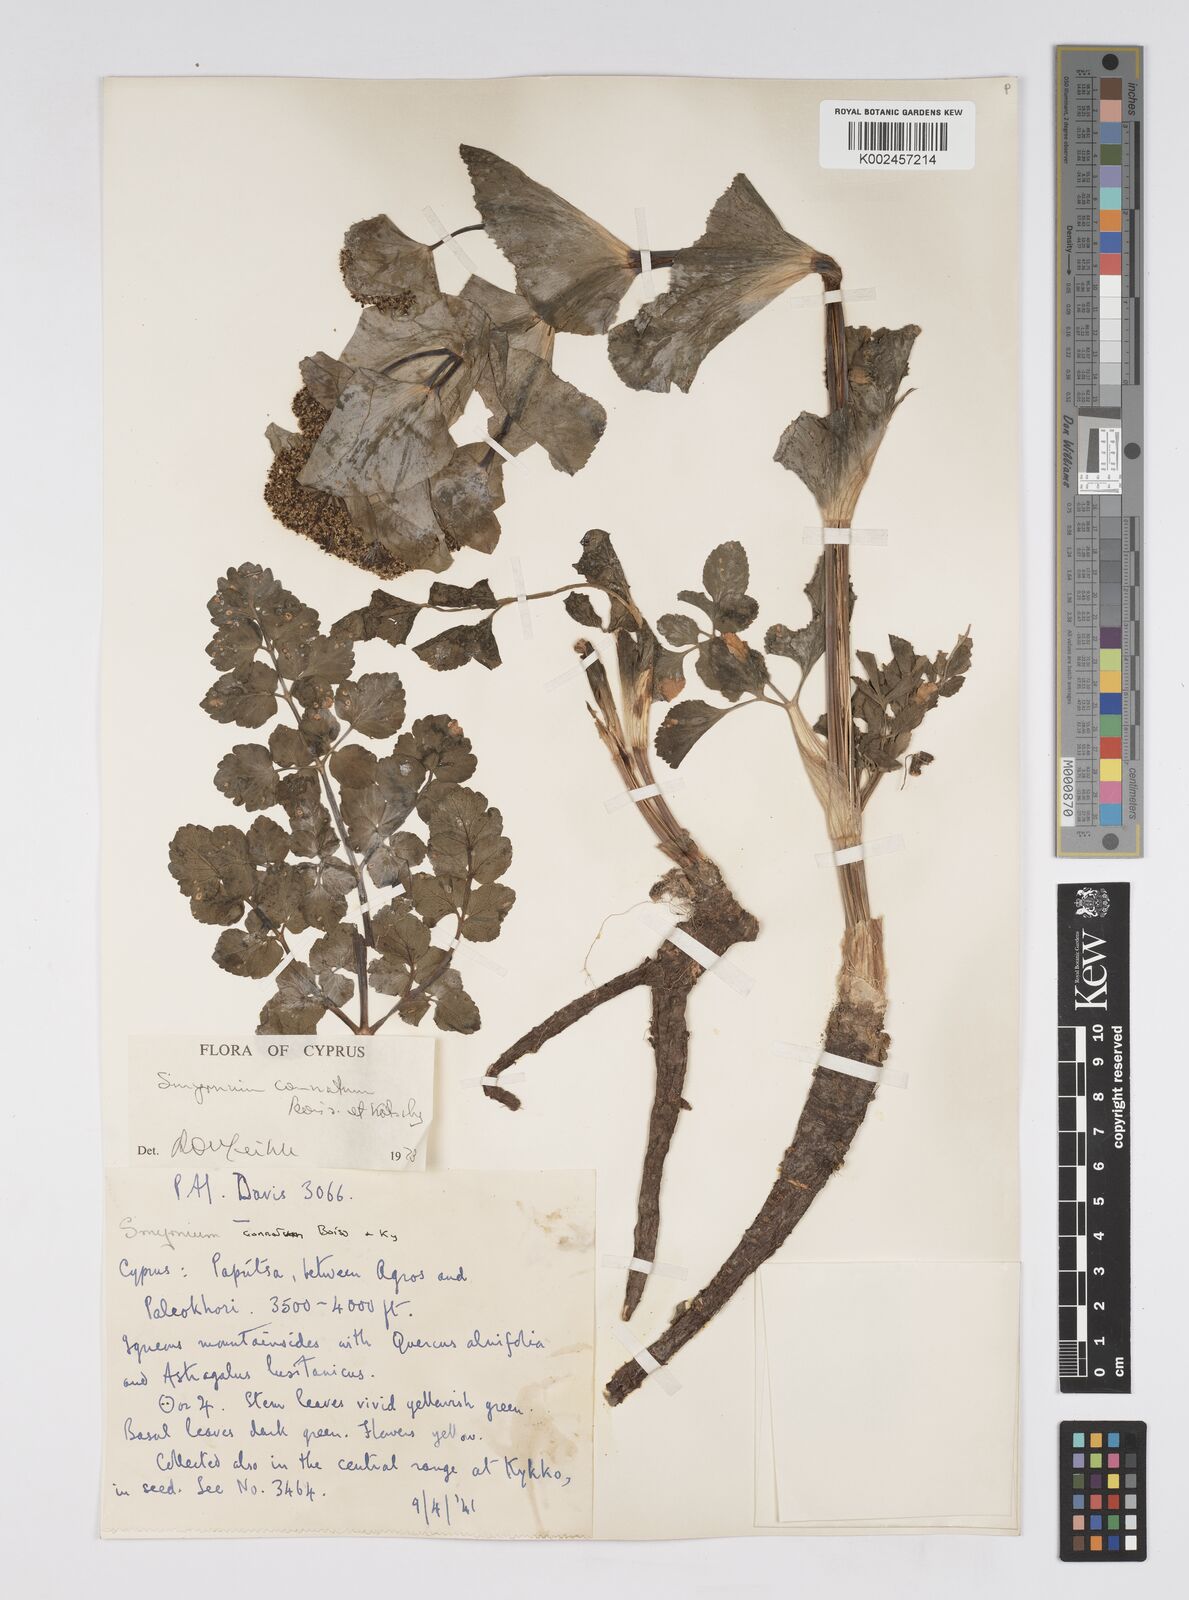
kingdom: Plantae
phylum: Tracheophyta
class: Magnoliopsida
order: Apiales
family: Apiaceae
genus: Smyrnium
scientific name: Smyrnium connatum
